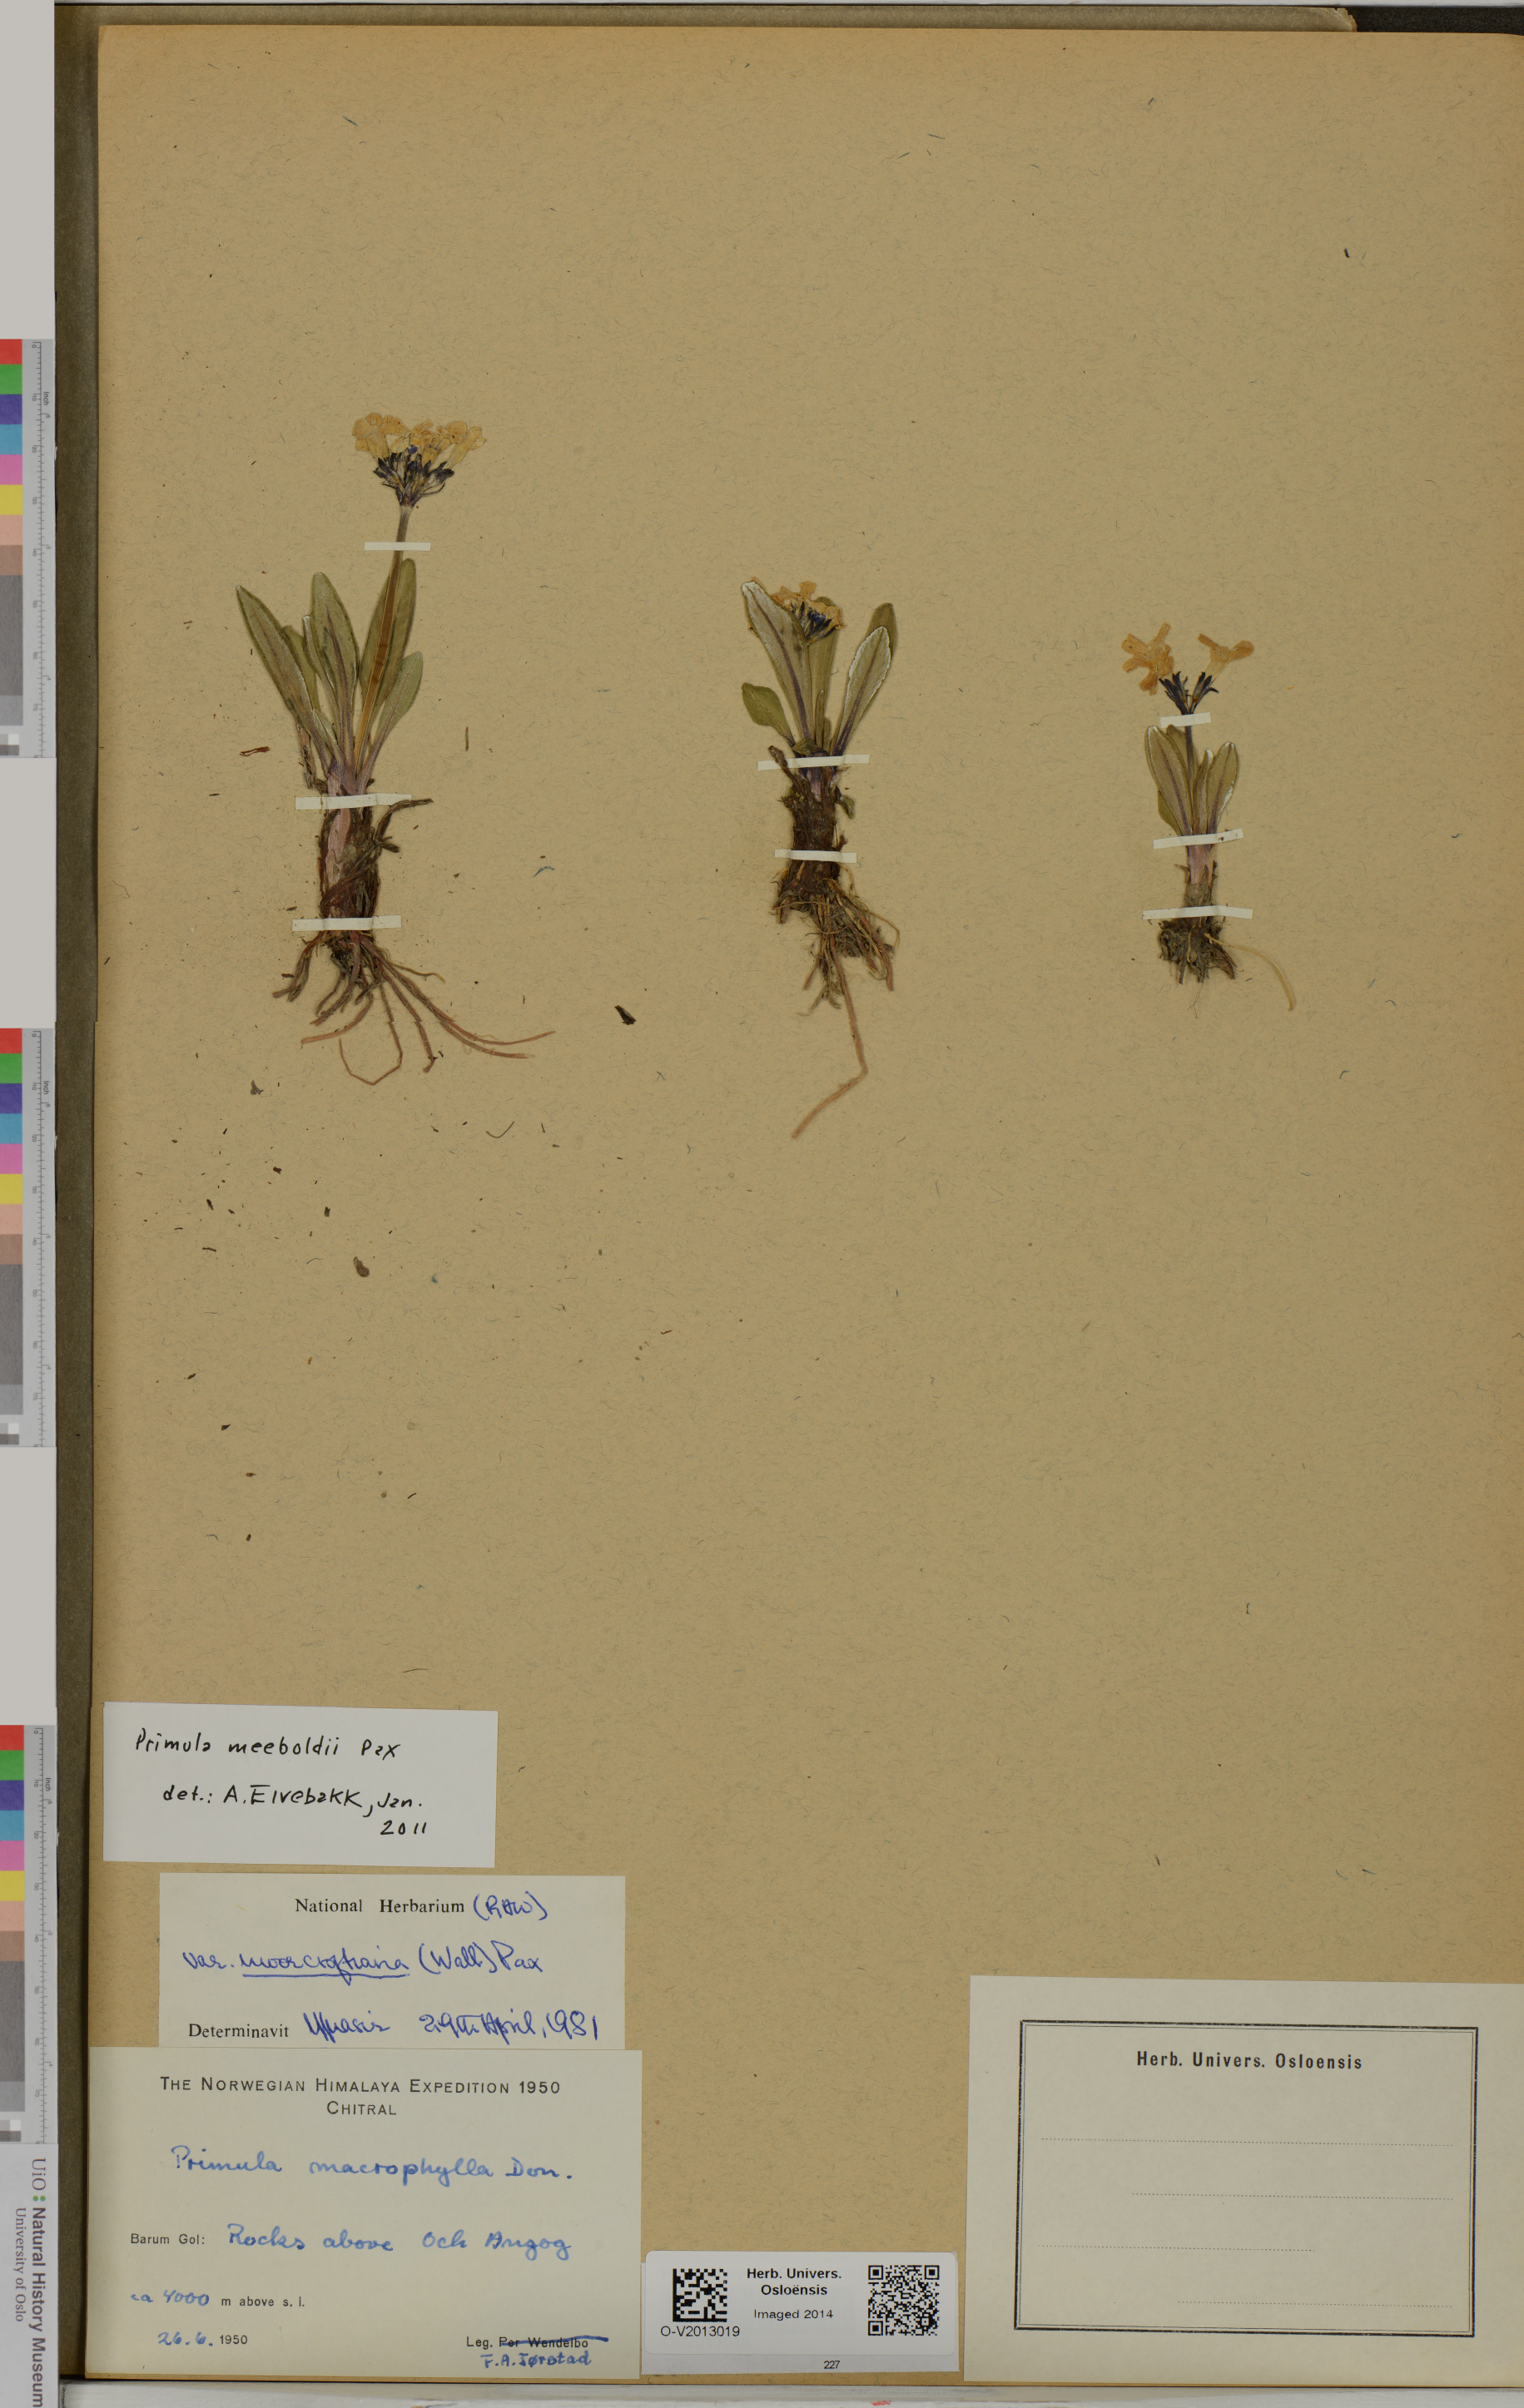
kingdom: Plantae
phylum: Tracheophyta
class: Magnoliopsida
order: Ericales
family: Primulaceae
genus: Primula
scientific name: Primula macrophylla
